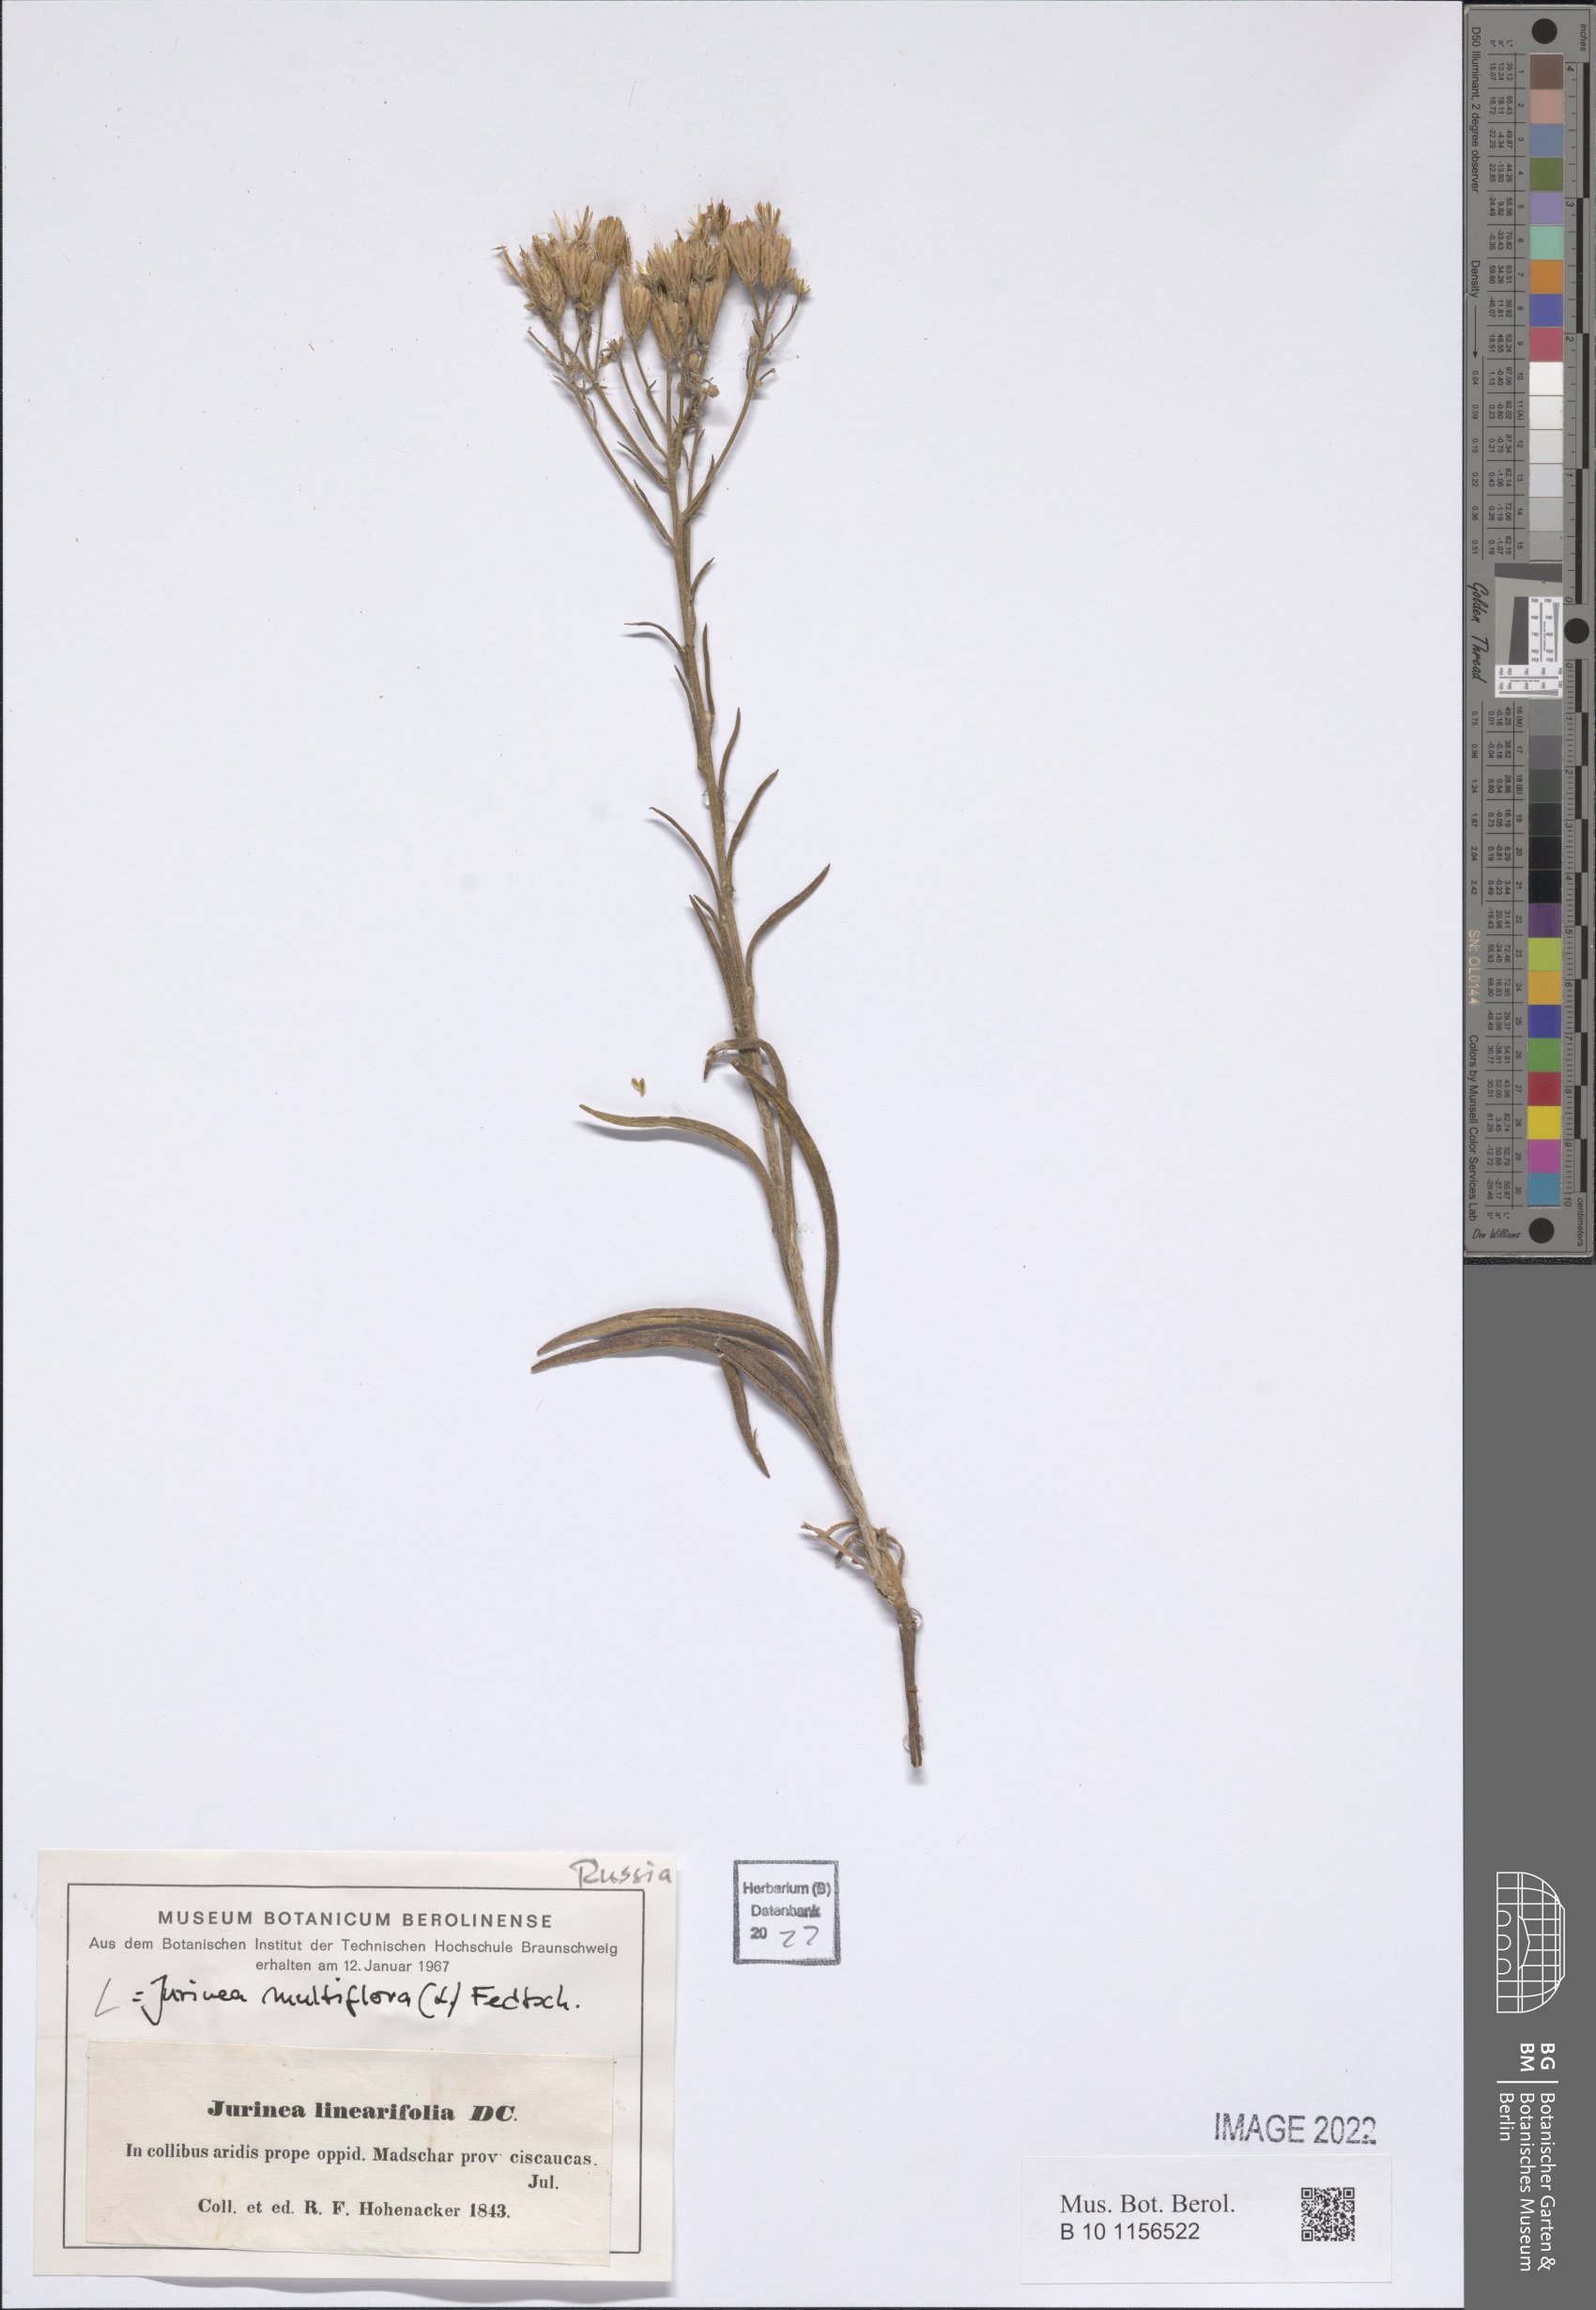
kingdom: Plantae
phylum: Tracheophyta
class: Magnoliopsida
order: Asterales
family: Asteraceae
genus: Jurinea
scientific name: Jurinea multiflora
